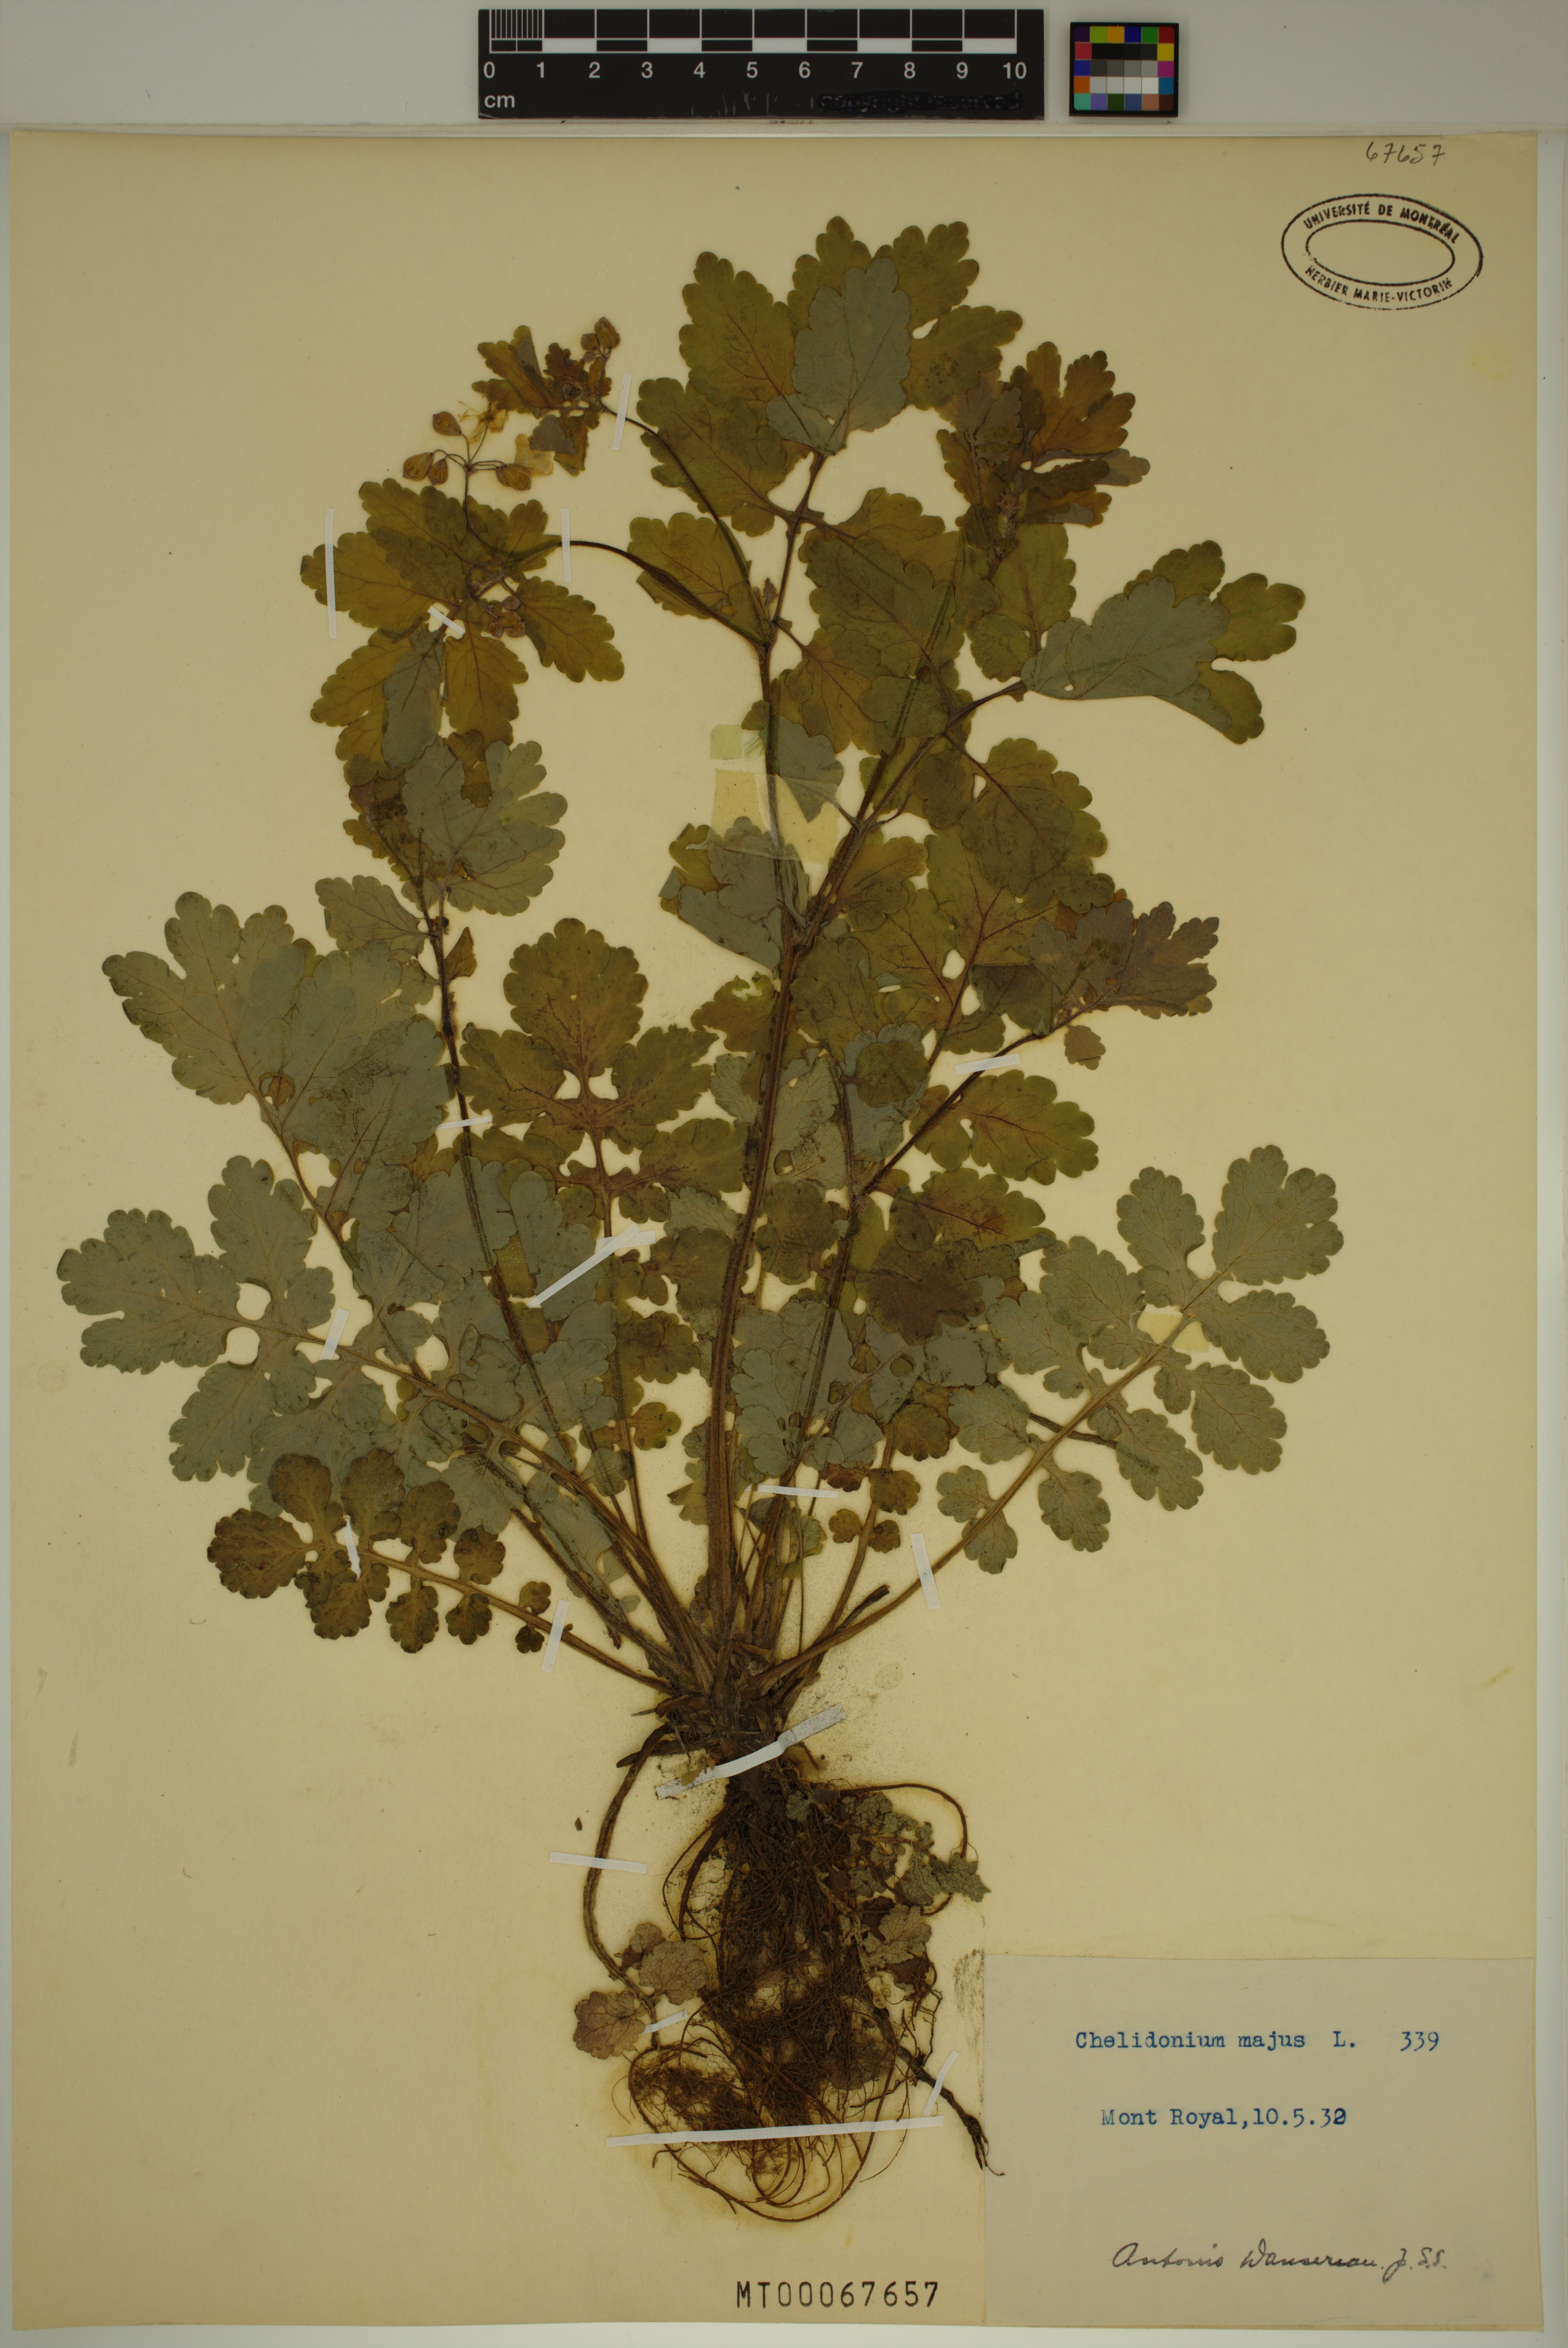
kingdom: Plantae
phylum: Tracheophyta
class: Magnoliopsida
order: Ranunculales
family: Papaveraceae
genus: Chelidonium
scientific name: Chelidonium majus
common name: Greater celandine
